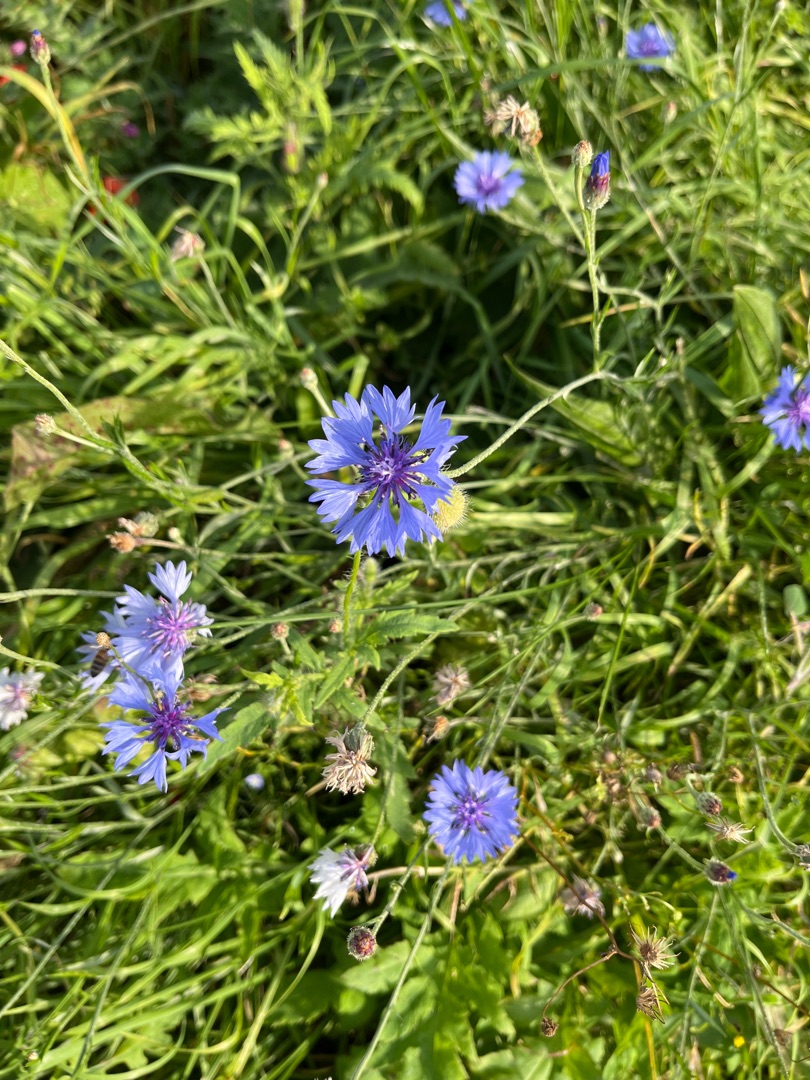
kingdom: Plantae
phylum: Tracheophyta
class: Magnoliopsida
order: Asterales
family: Asteraceae
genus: Centaurea
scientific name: Centaurea cyanus
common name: Kornblomst
